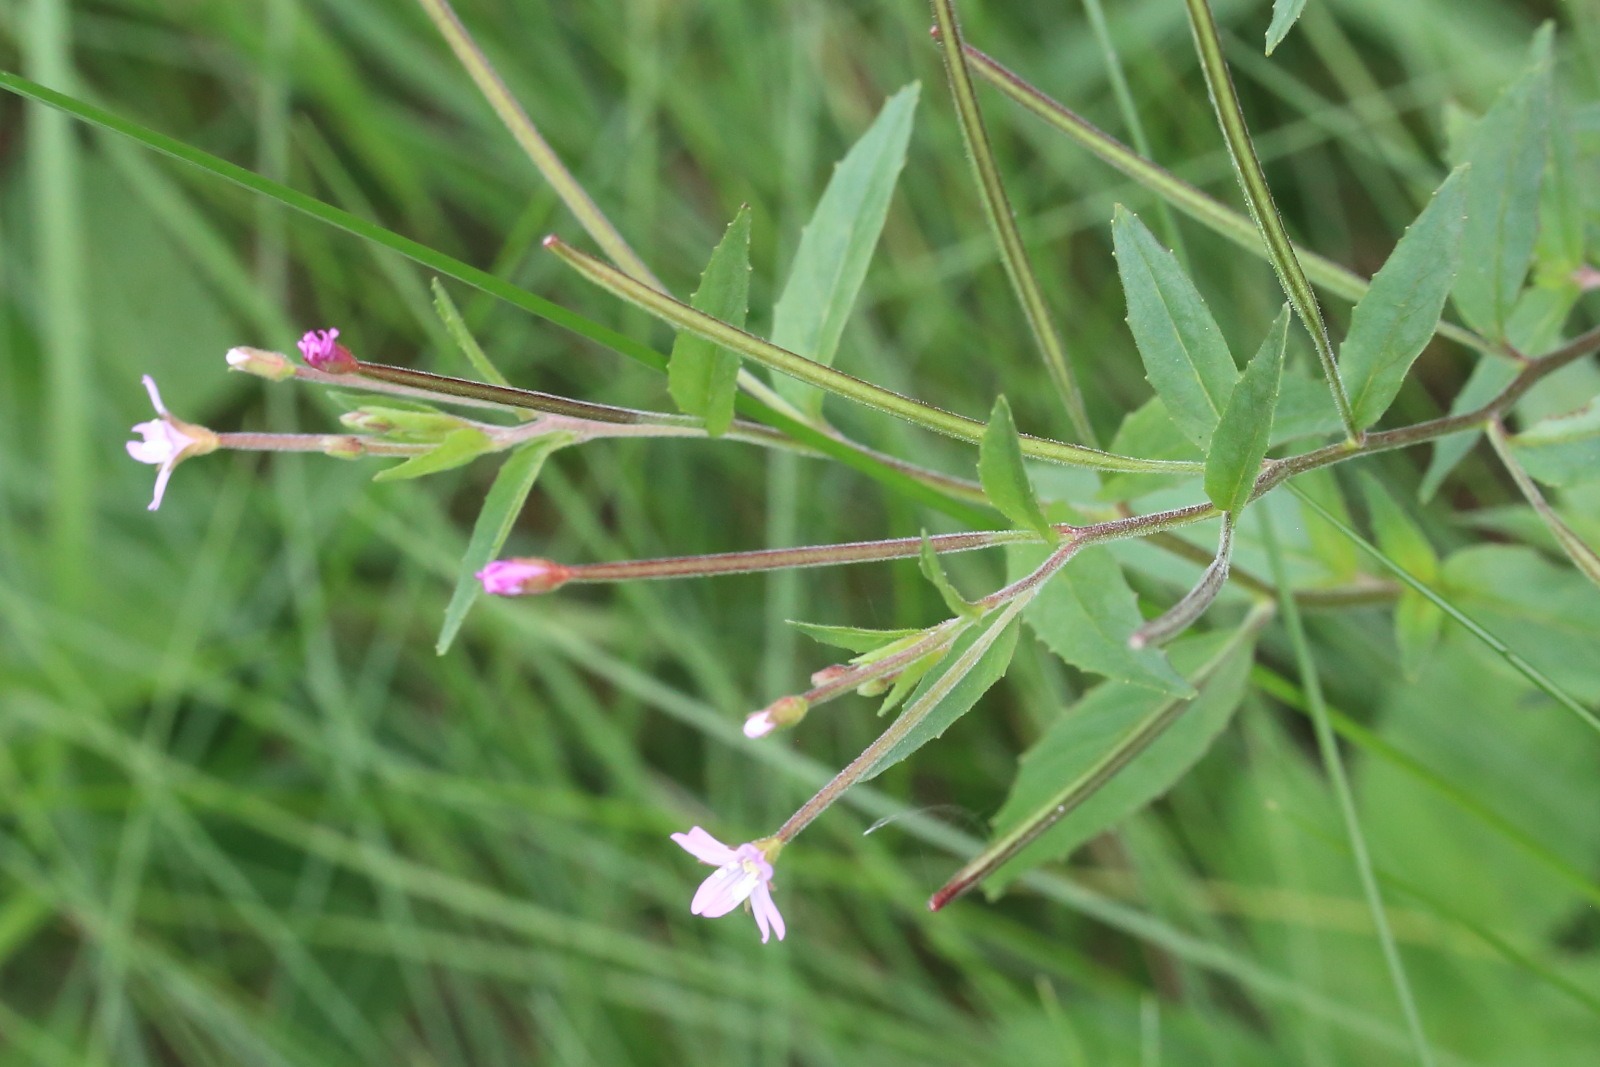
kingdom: Plantae
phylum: Tracheophyta
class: Magnoliopsida
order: Myrtales
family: Onagraceae
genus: Epilobium
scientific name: Epilobium
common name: Dueurtslægten
